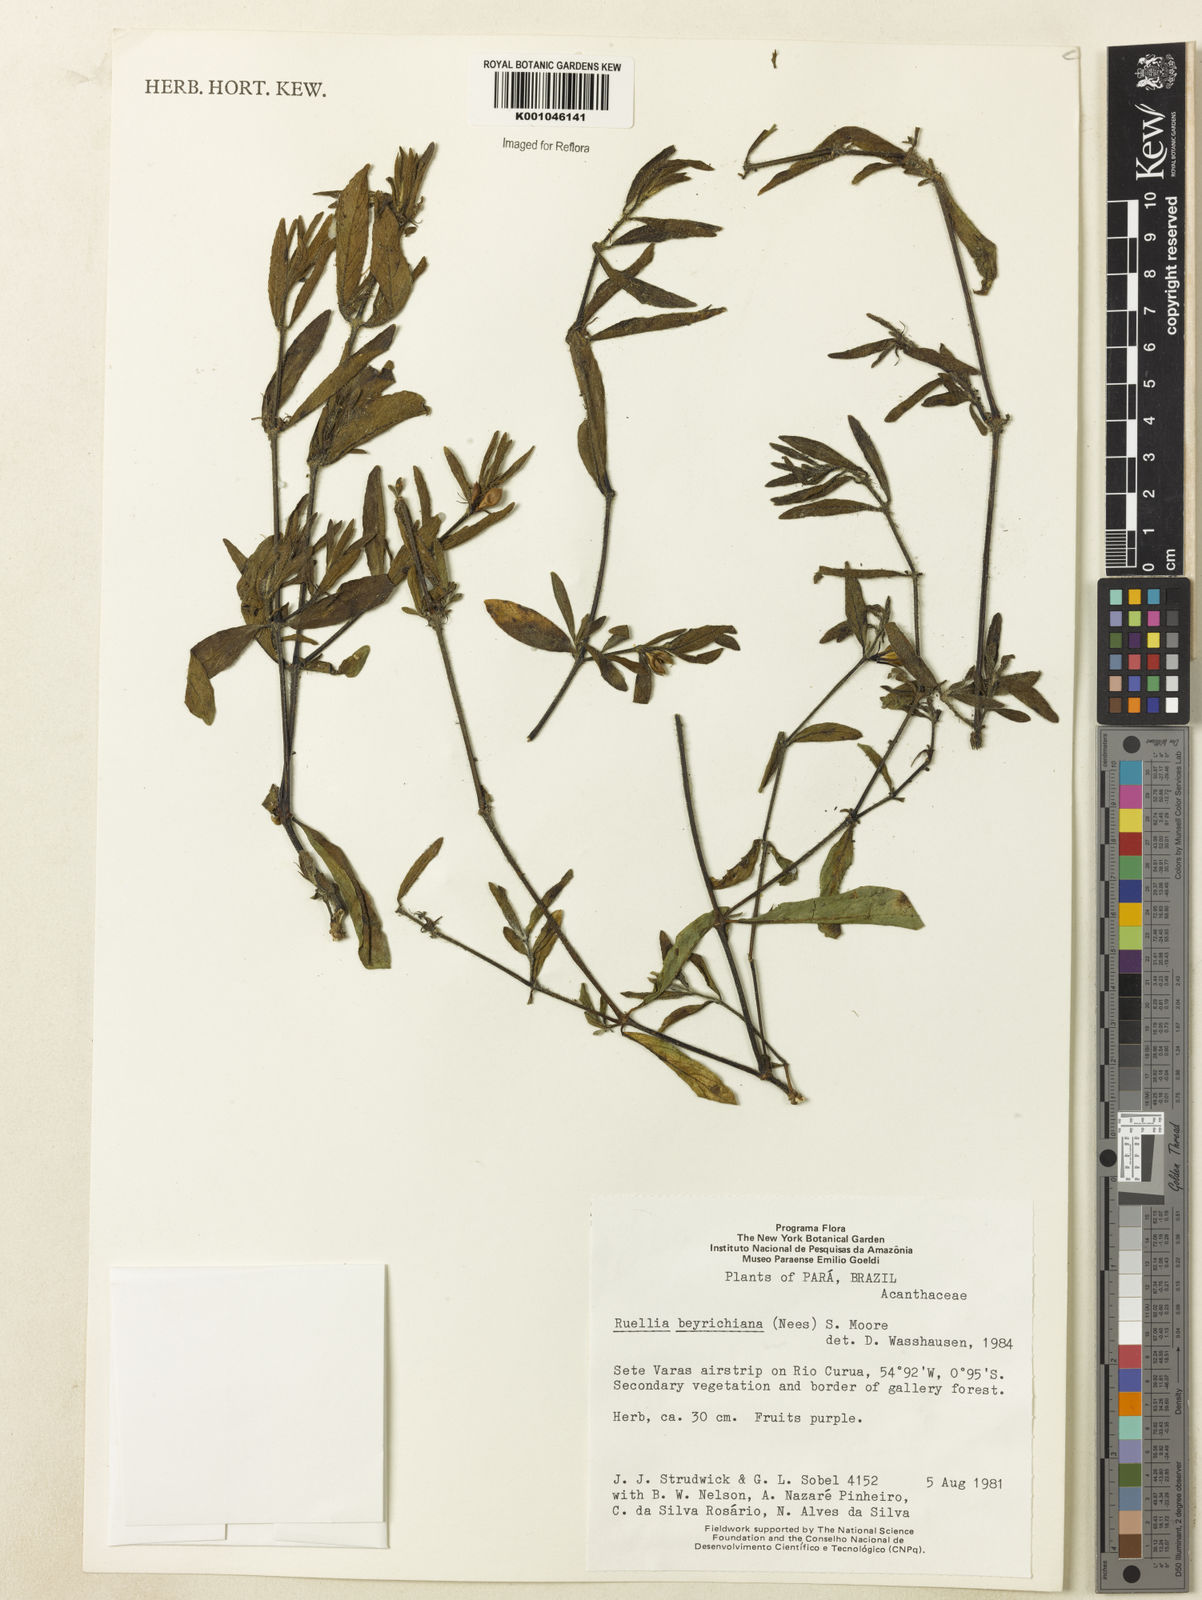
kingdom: Plantae
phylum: Tracheophyta
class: Magnoliopsida
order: Lamiales
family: Acanthaceae
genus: Ruellia
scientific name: Ruellia beyrichiana
